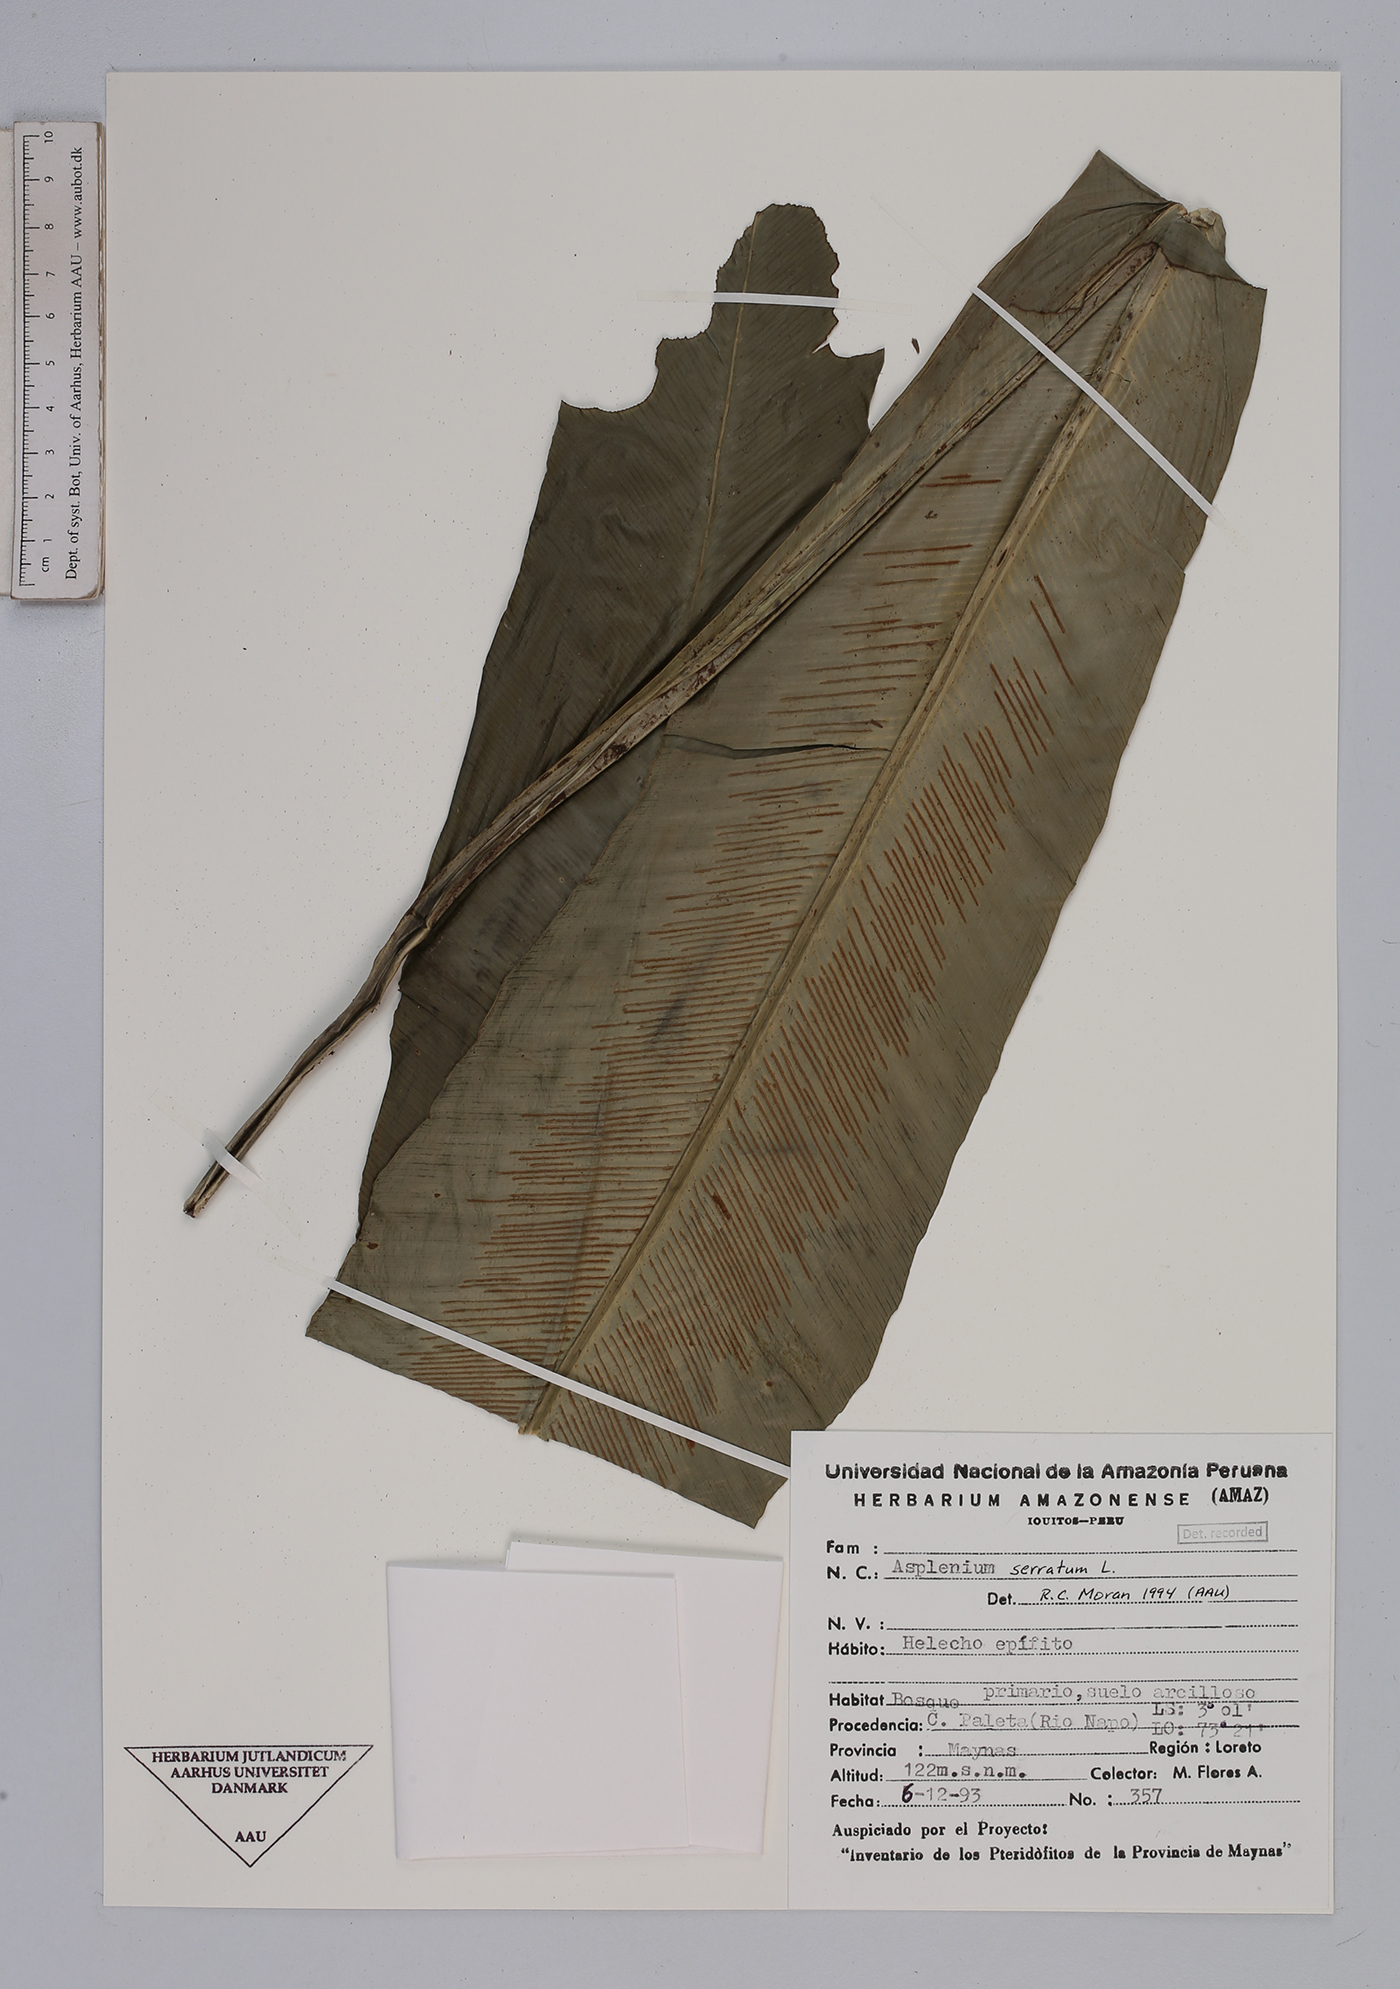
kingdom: Plantae
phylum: Tracheophyta
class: Polypodiopsida
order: Polypodiales
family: Aspleniaceae
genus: Asplenium
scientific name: Asplenium serratum
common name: Wild birdnest fern
